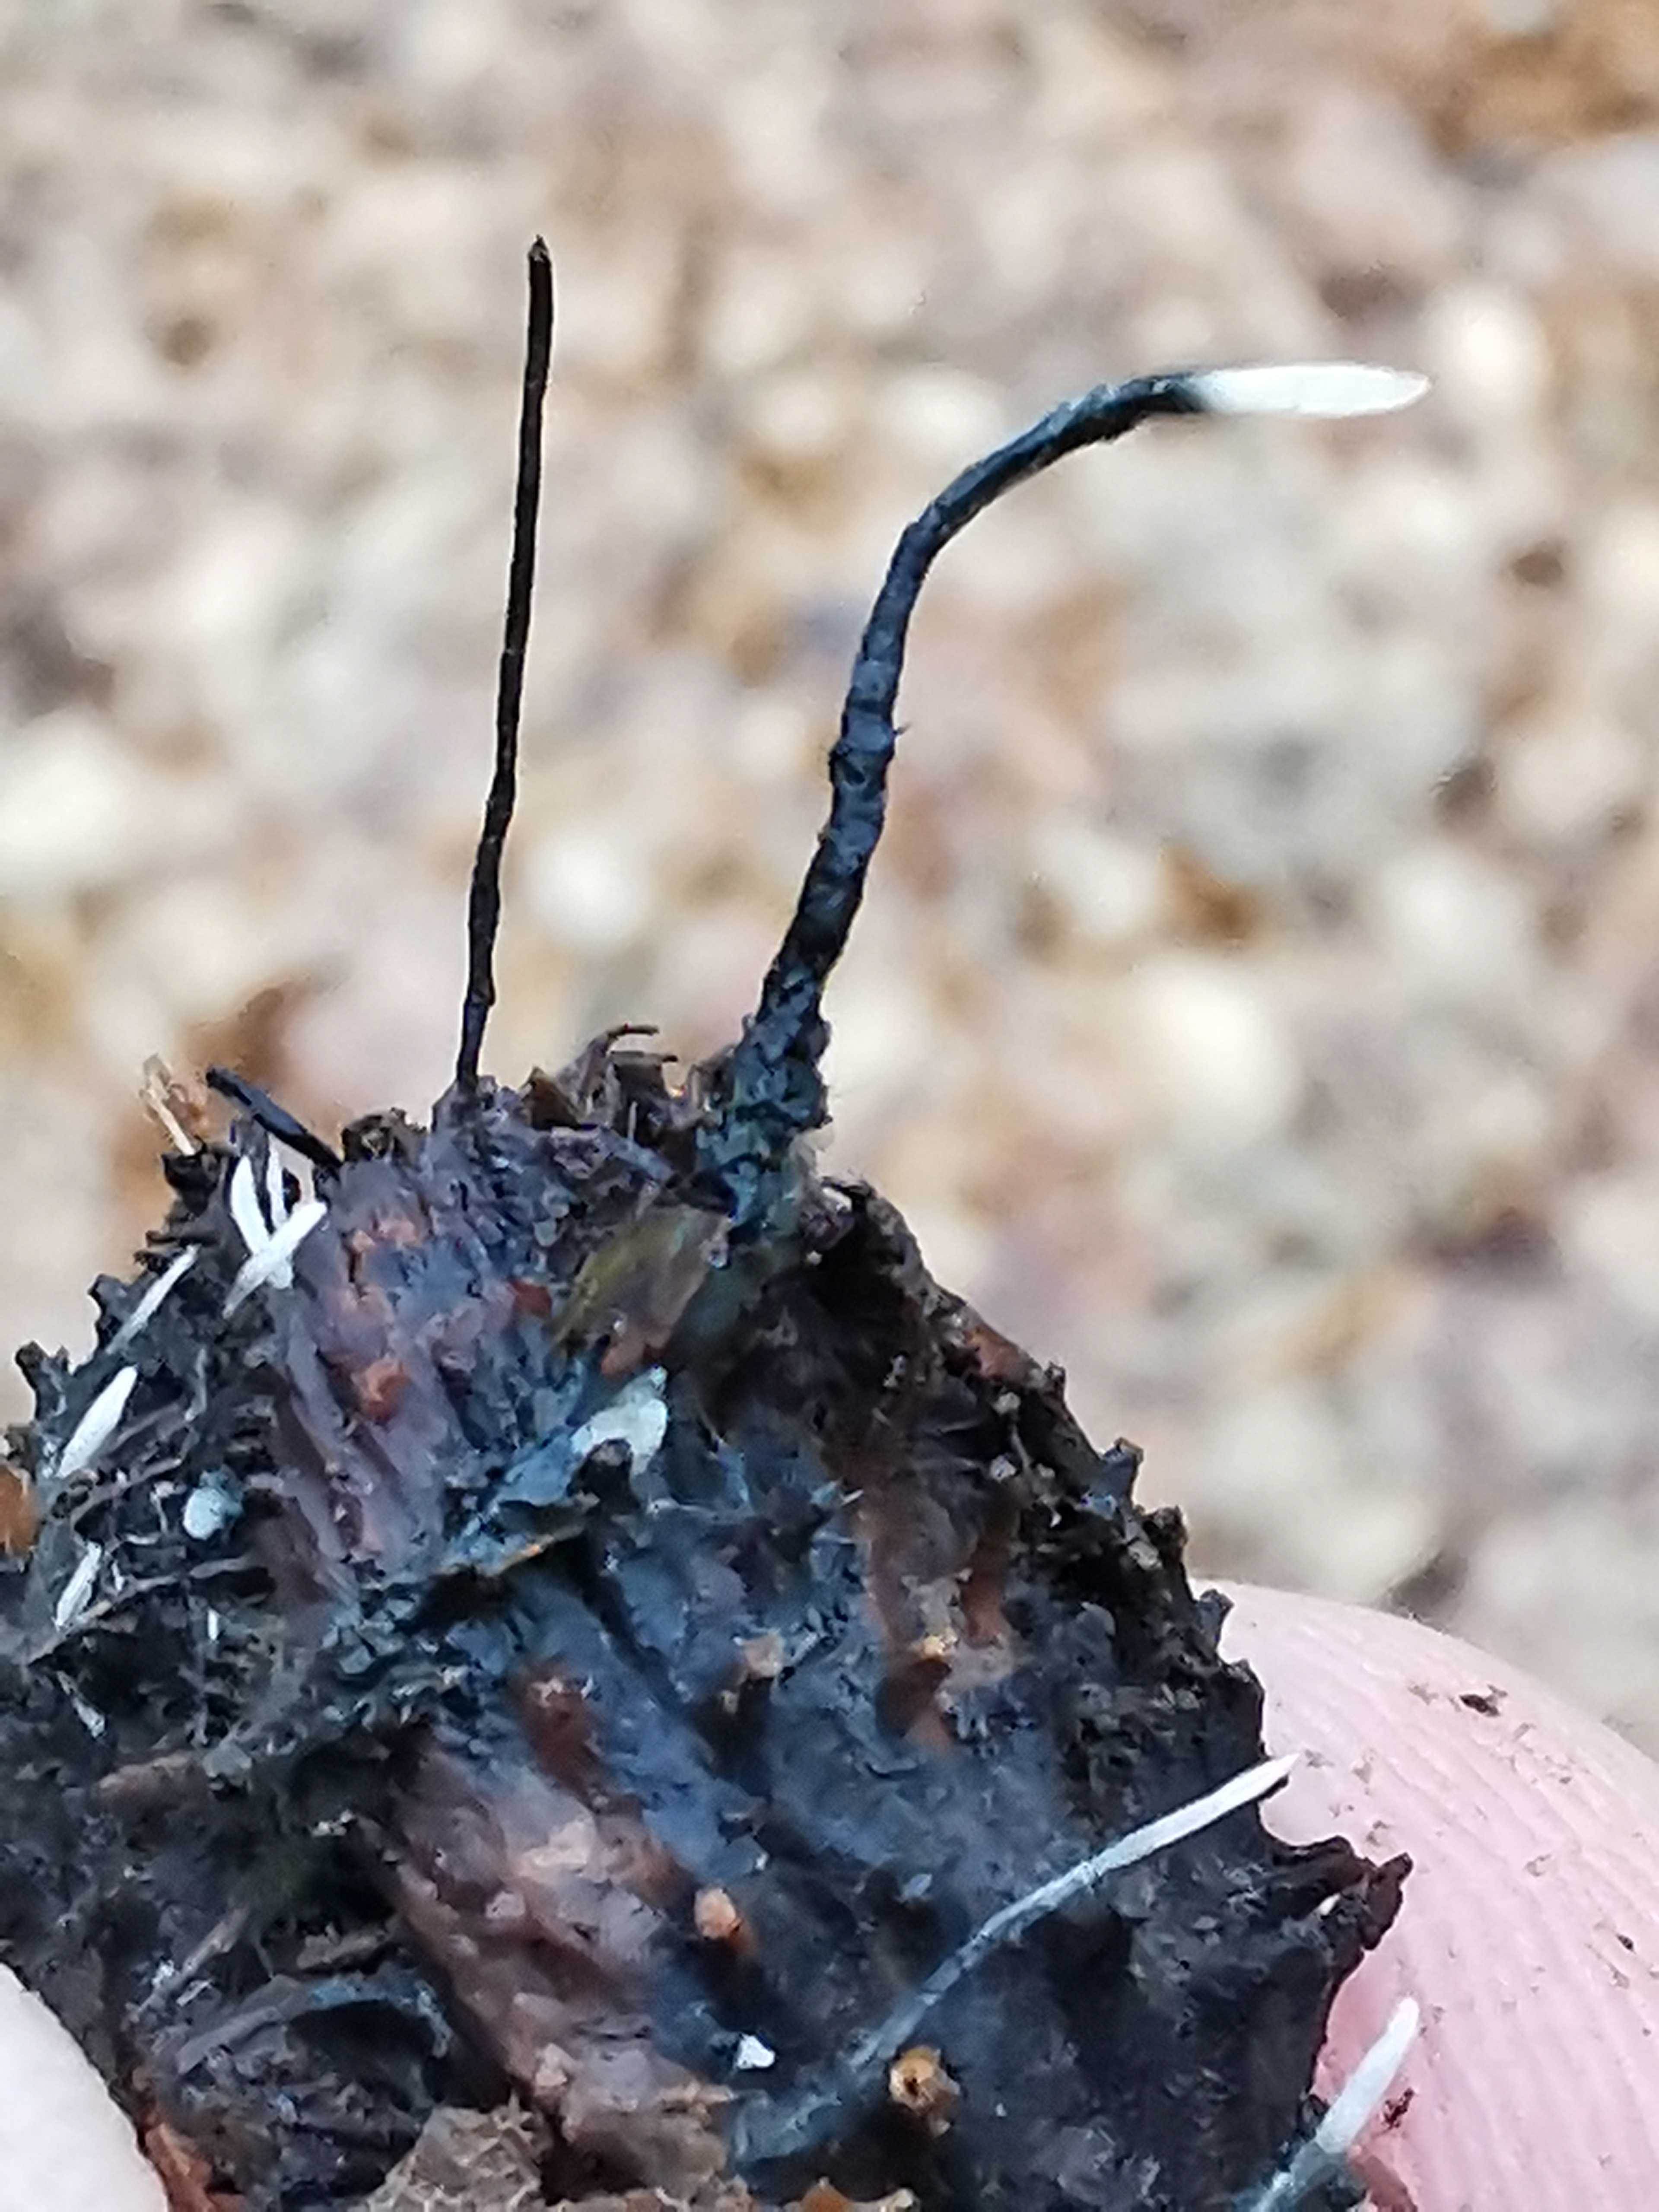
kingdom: Fungi
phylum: Ascomycota
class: Sordariomycetes
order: Xylariales
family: Xylariaceae
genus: Xylaria
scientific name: Xylaria carpophila
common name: bogskål-stødsvamp
